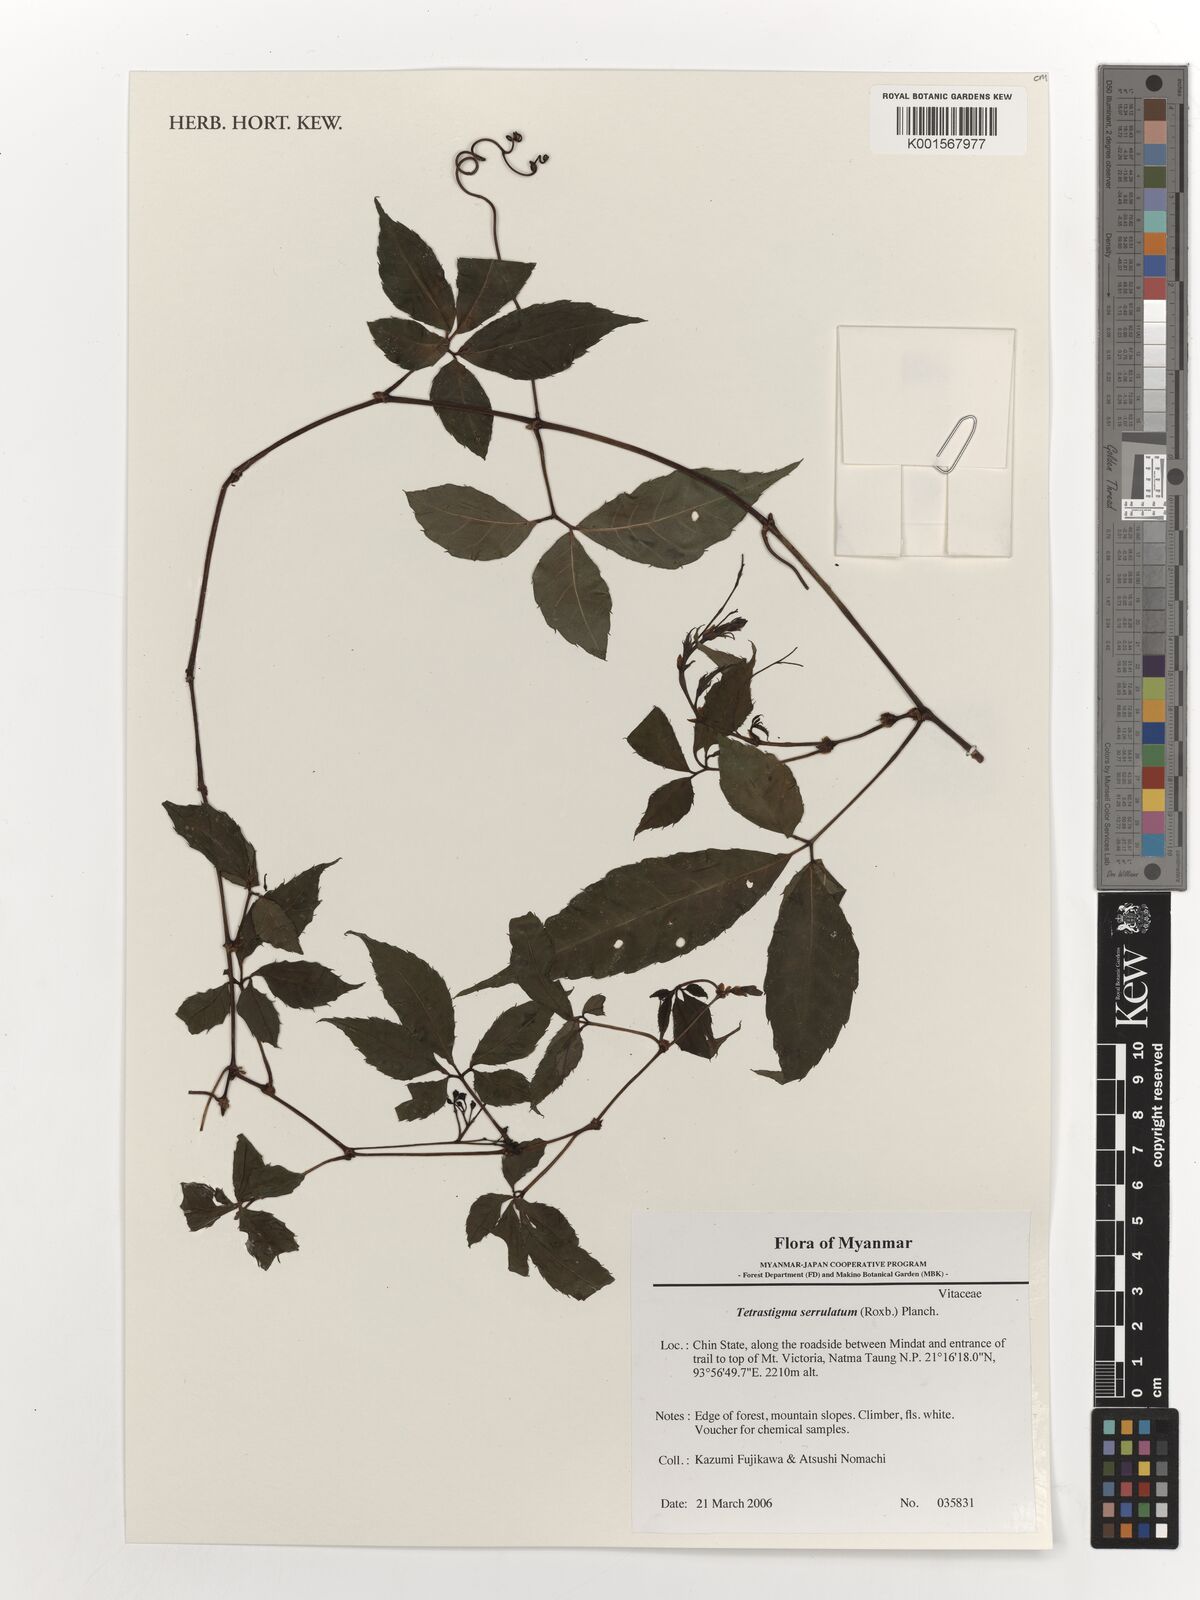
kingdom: Plantae
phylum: Tracheophyta
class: Magnoliopsida
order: Vitales
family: Vitaceae
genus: Tetrastigma
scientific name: Tetrastigma serrulatum
